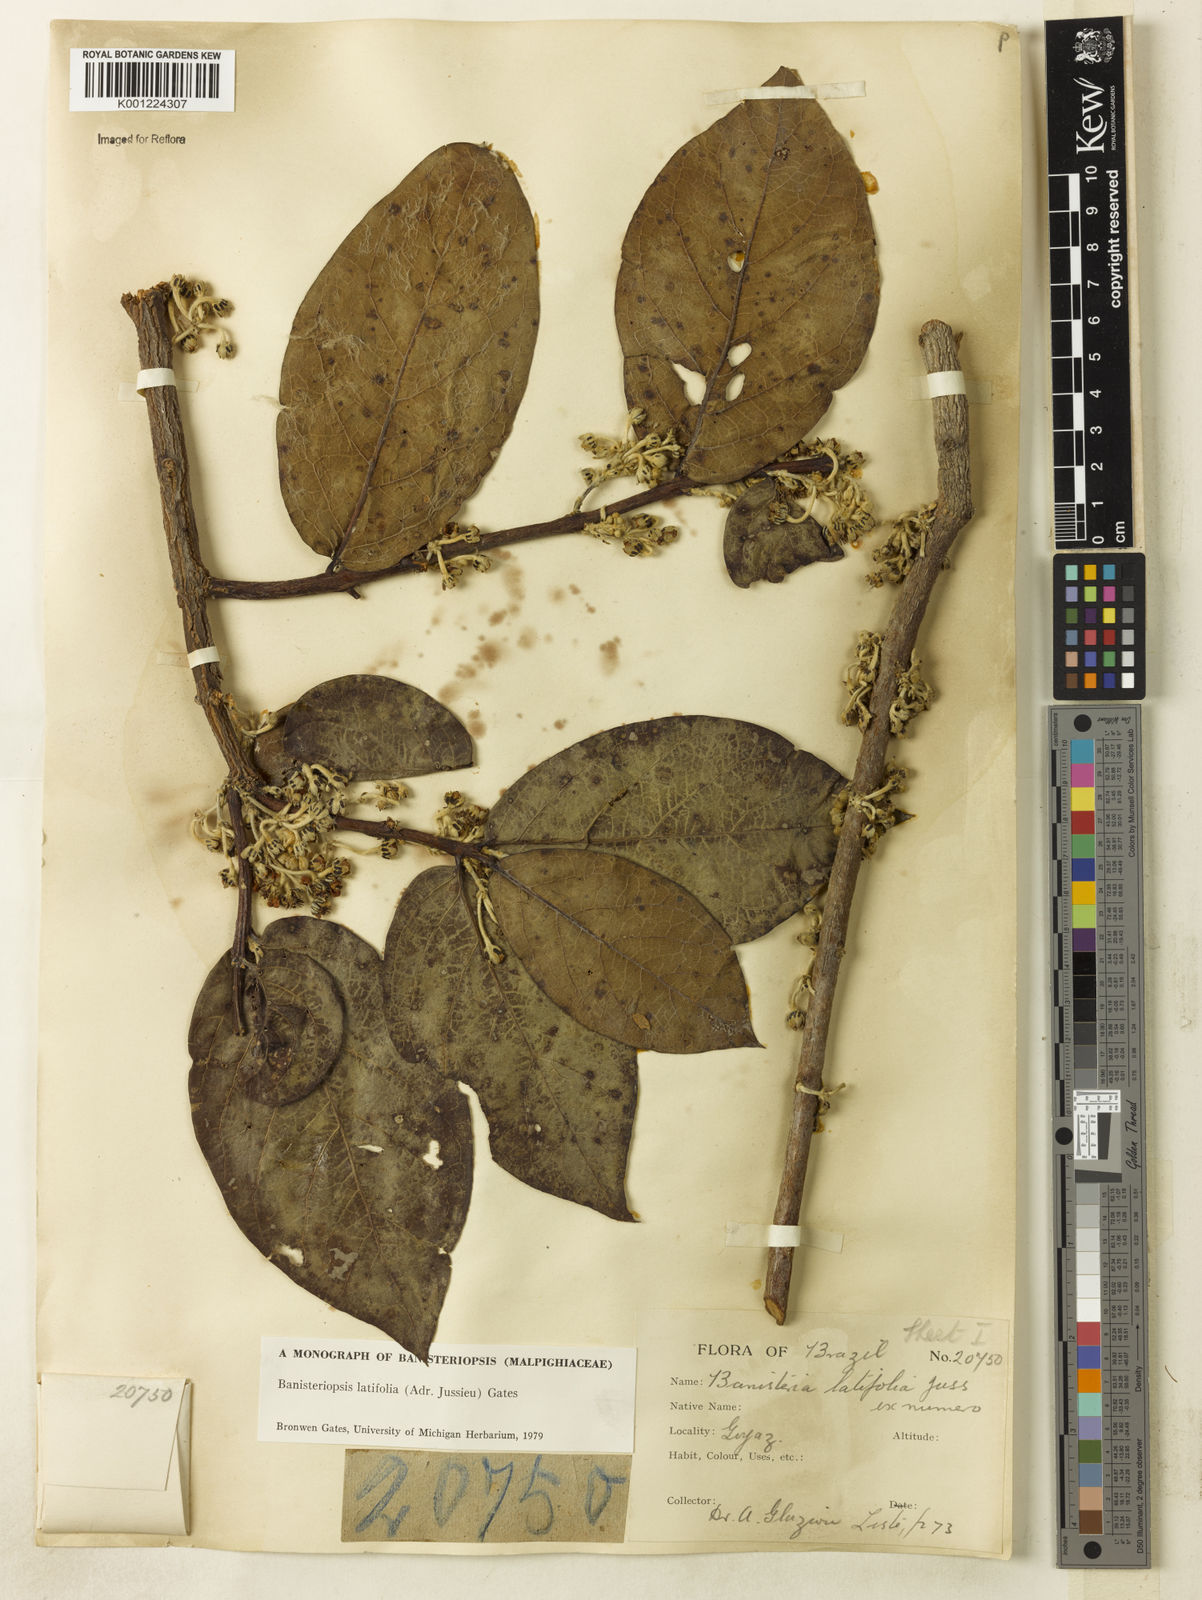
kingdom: Plantae
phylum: Tracheophyta
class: Magnoliopsida
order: Malpighiales
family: Malpighiaceae
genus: Banisteriopsis
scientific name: Banisteriopsis latifolia
